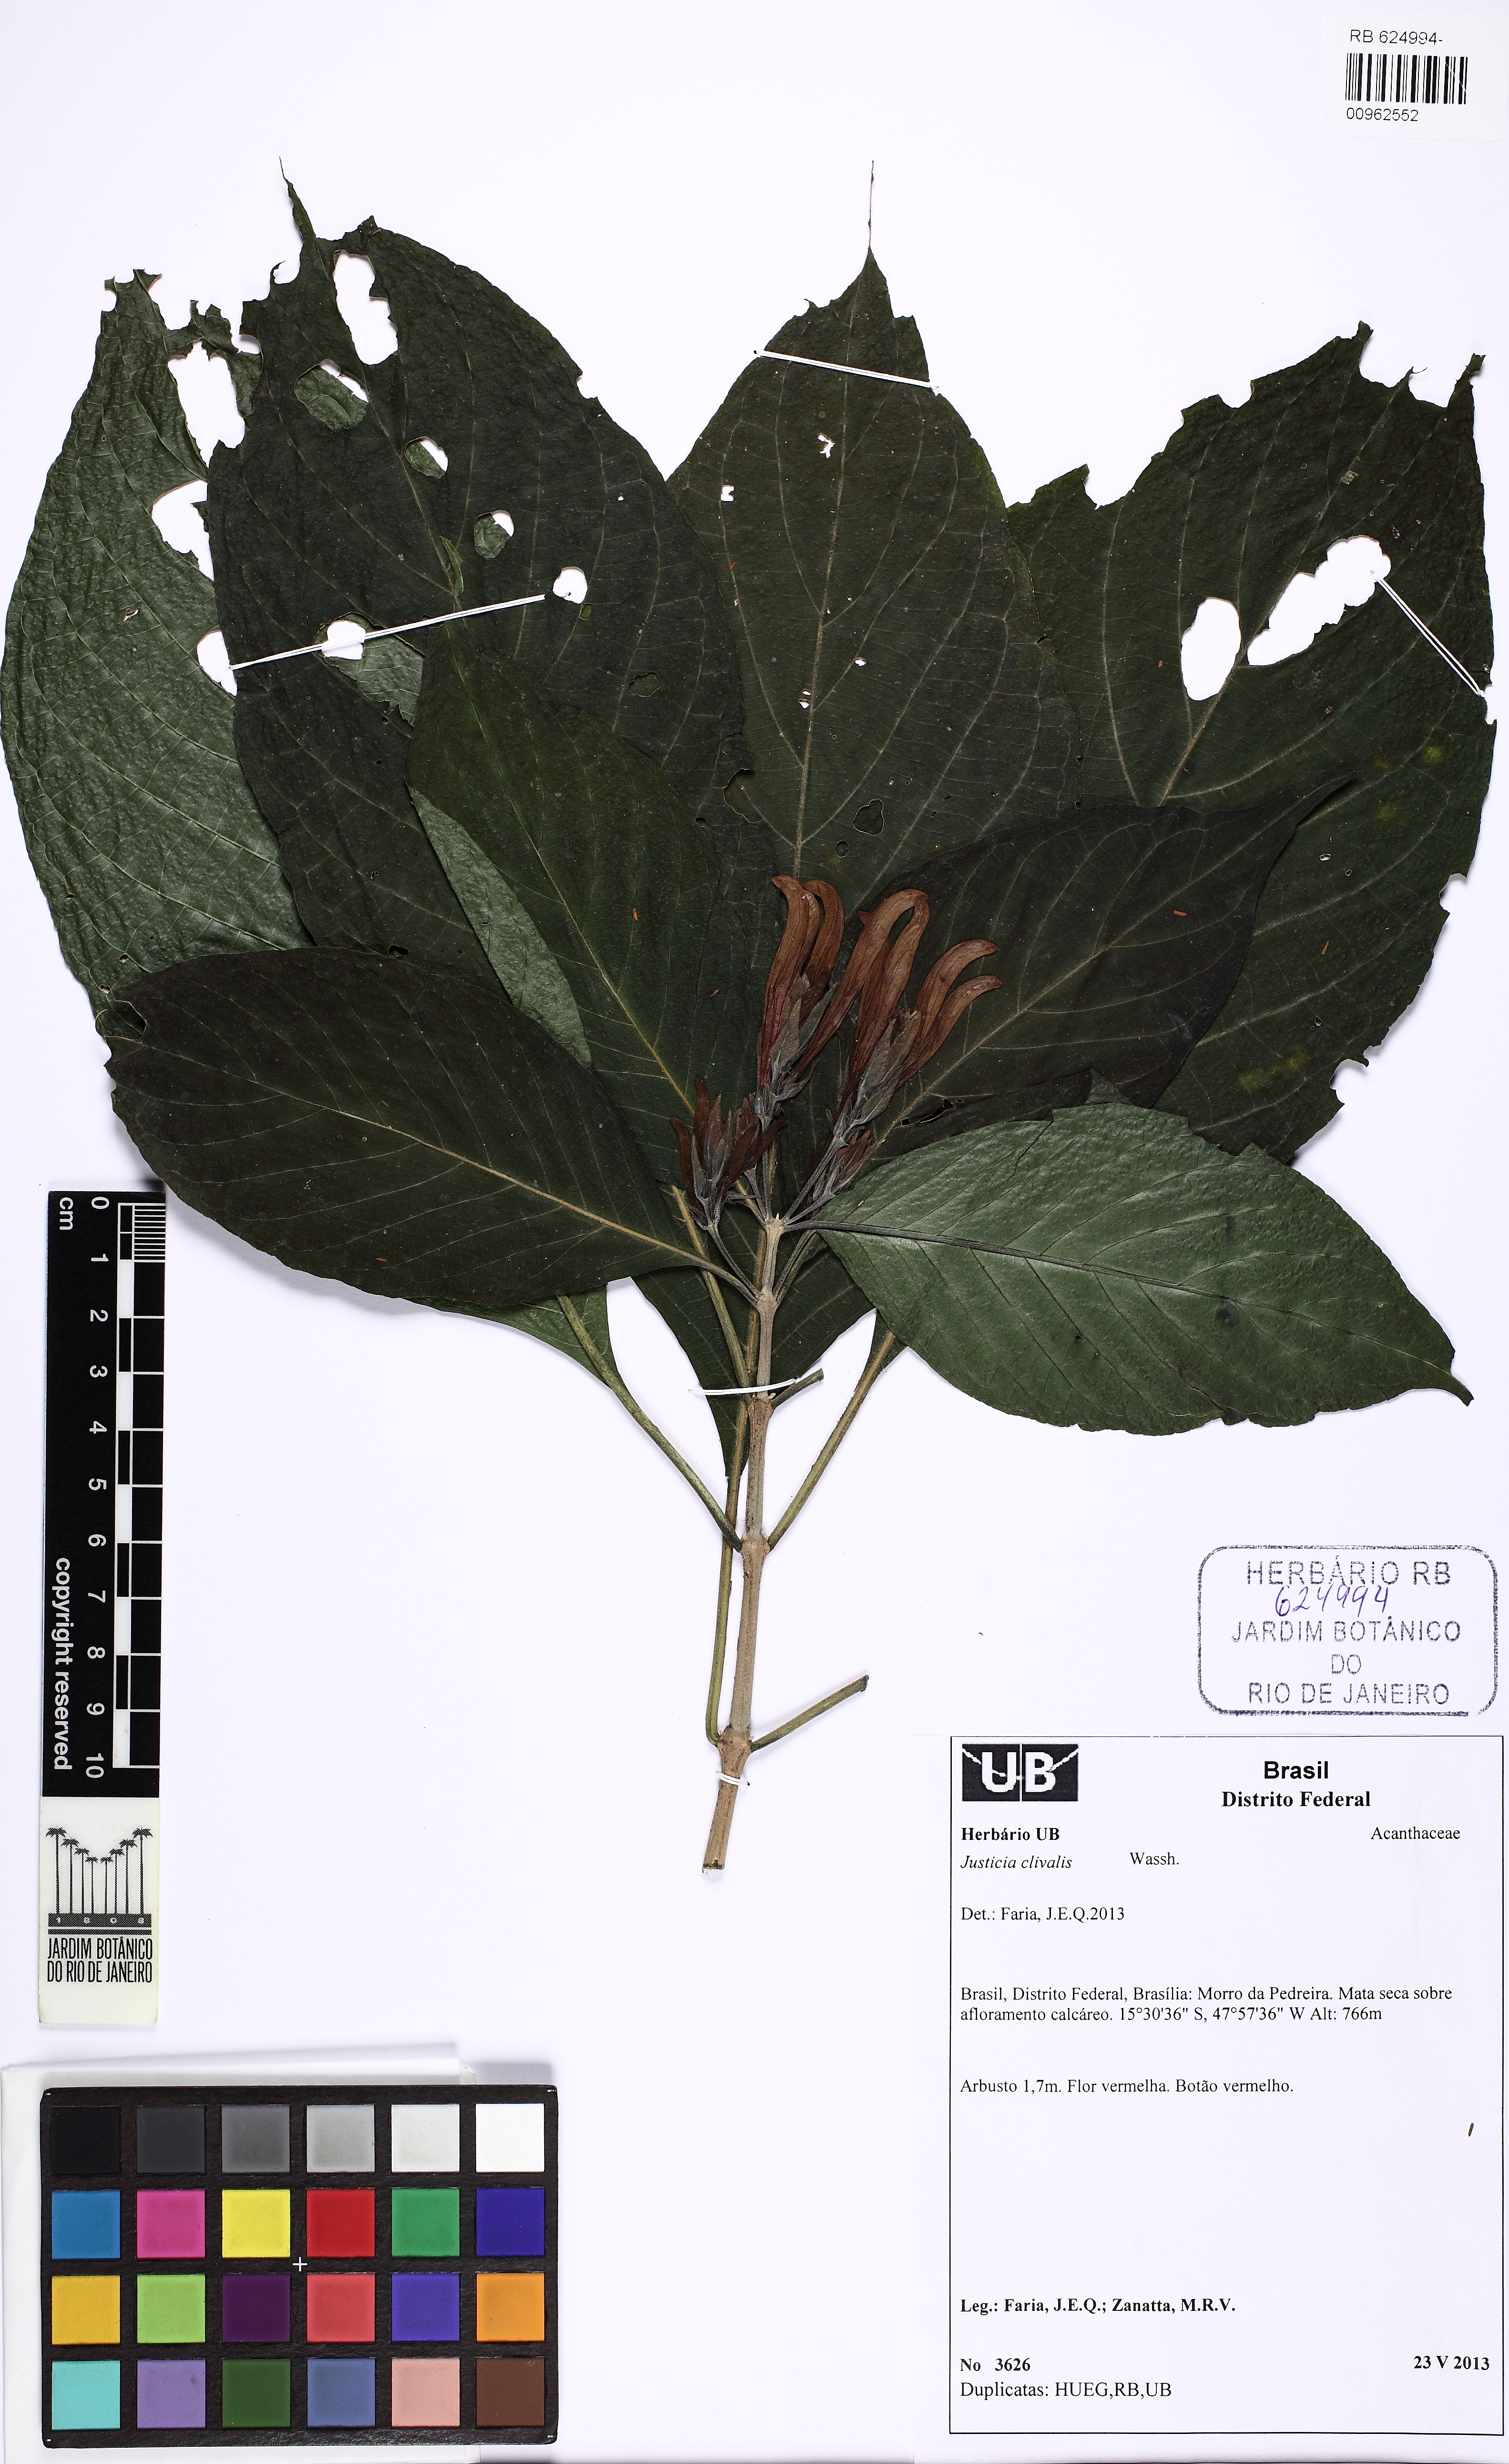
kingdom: Plantae
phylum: Tracheophyta
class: Magnoliopsida
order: Lamiales
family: Acanthaceae
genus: Justicia
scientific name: Justicia clivalis
